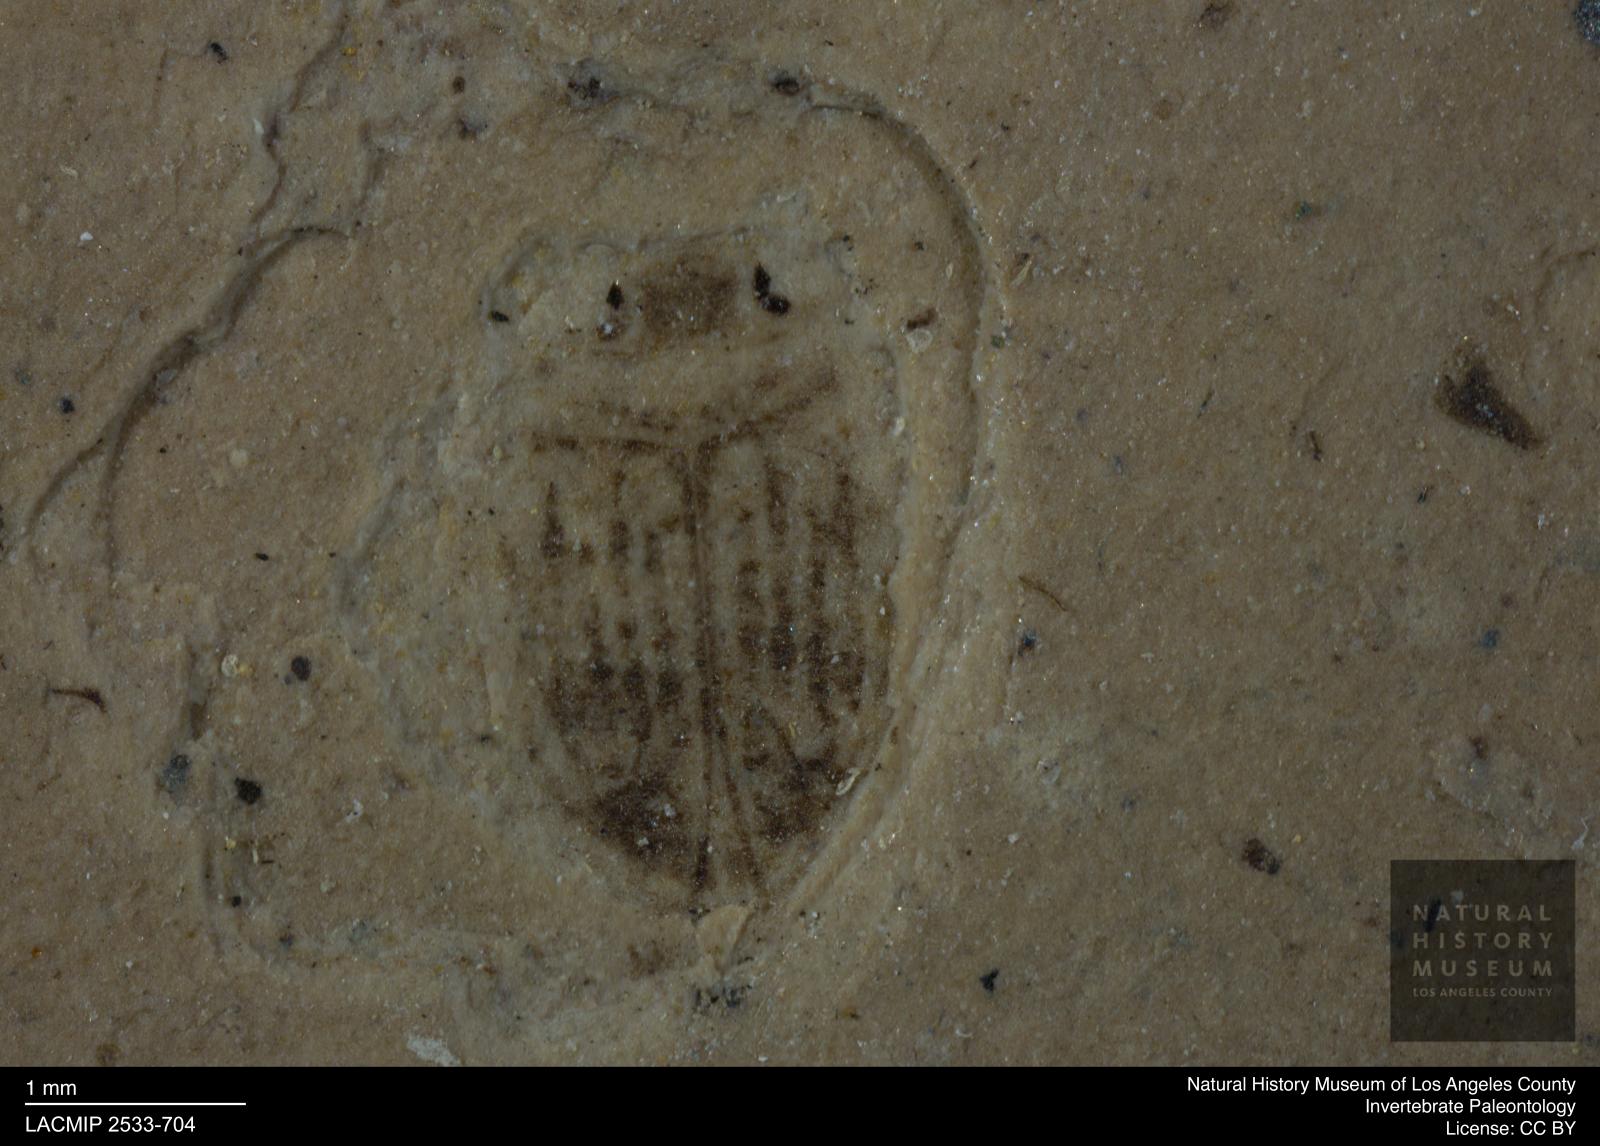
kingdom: Animalia
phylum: Arthropoda
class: Insecta
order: Coleoptera
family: Dytiscidae
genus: Oreodytes
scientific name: Oreodytes cryptolineatus
